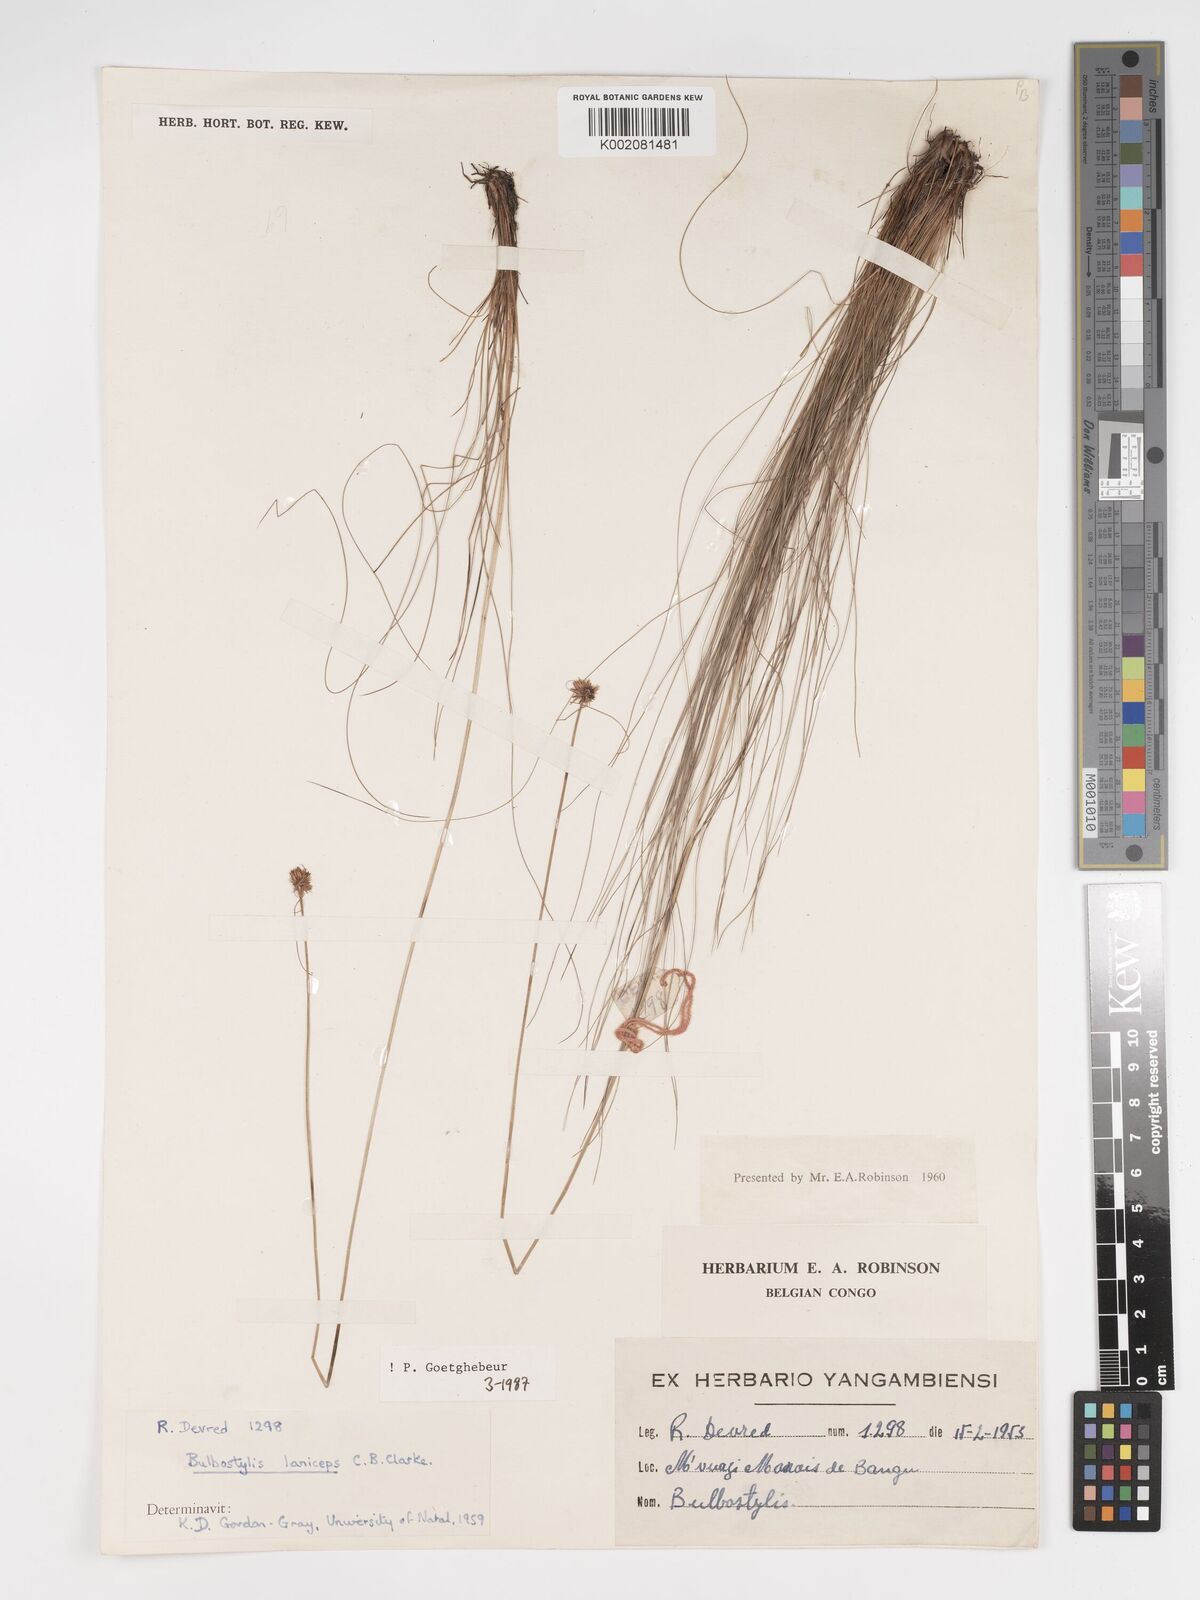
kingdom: Plantae
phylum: Tracheophyta
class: Liliopsida
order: Poales
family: Cyperaceae
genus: Bulbostylis
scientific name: Bulbostylis laniceps
